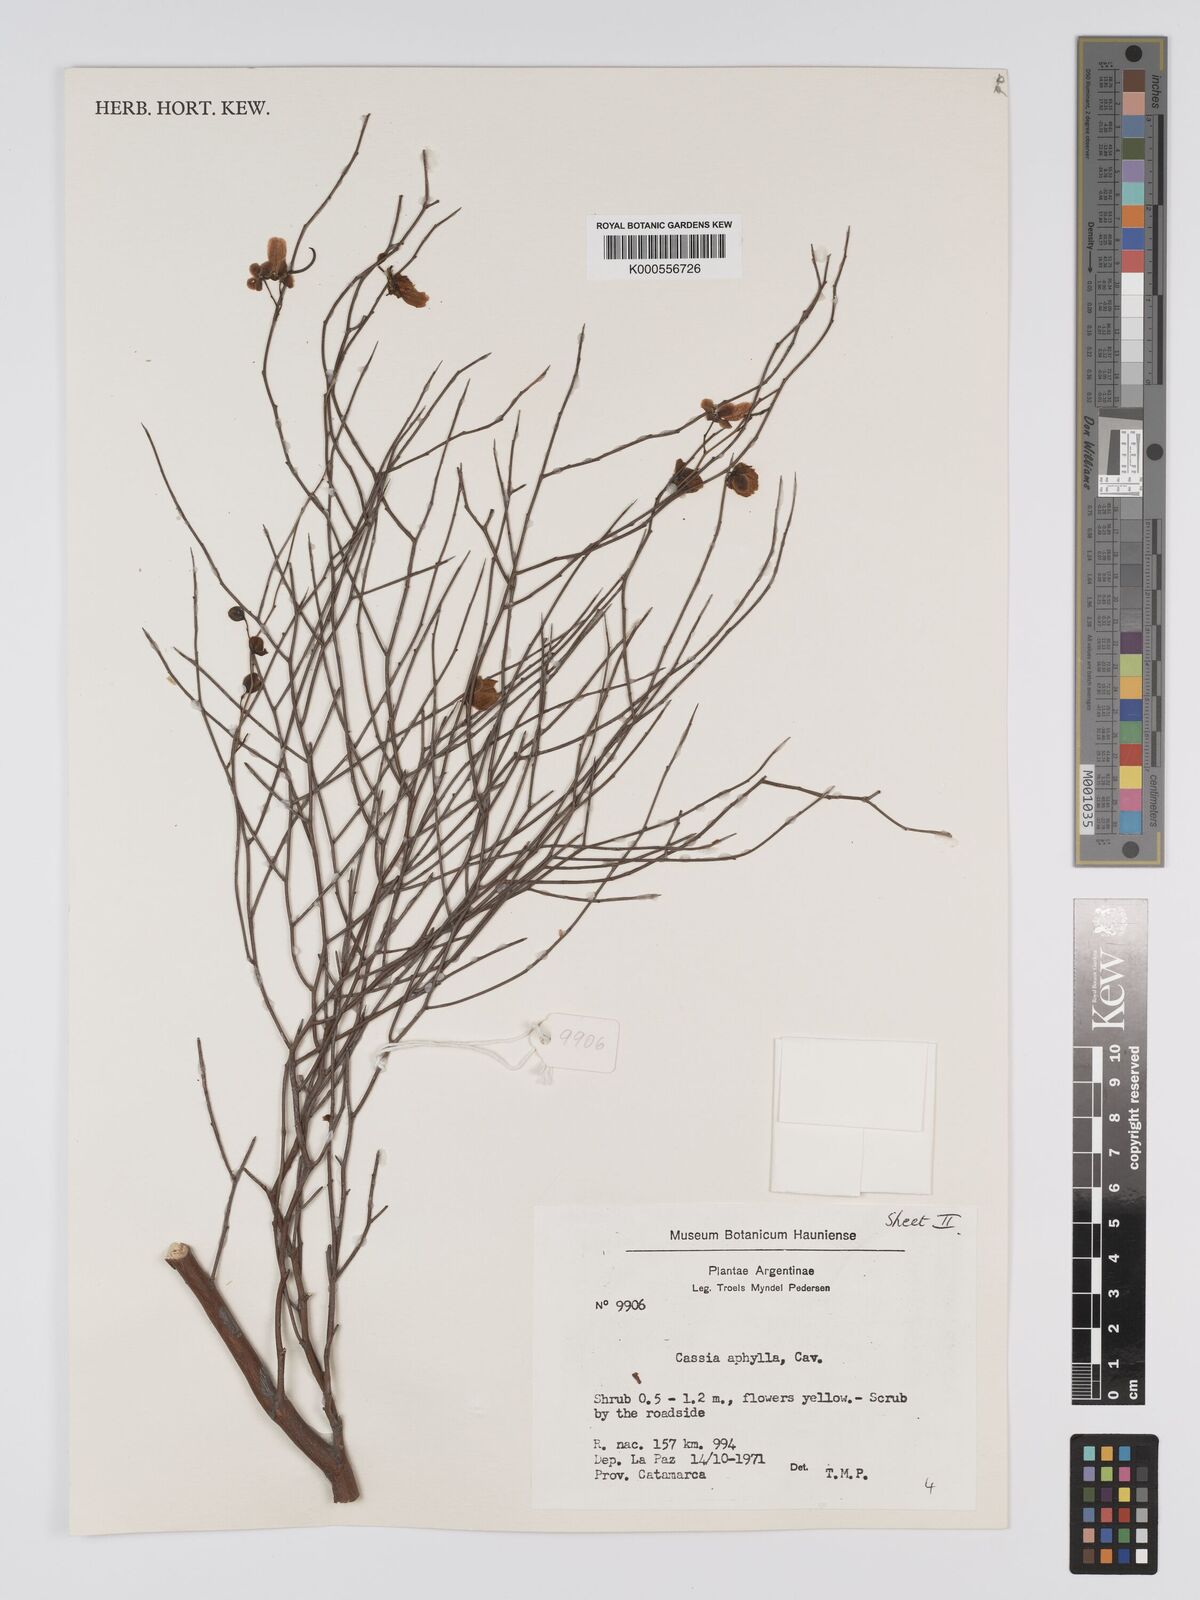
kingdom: Plantae
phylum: Tracheophyta
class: Magnoliopsida
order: Fabales
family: Fabaceae
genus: Senna
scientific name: Senna aphylla
